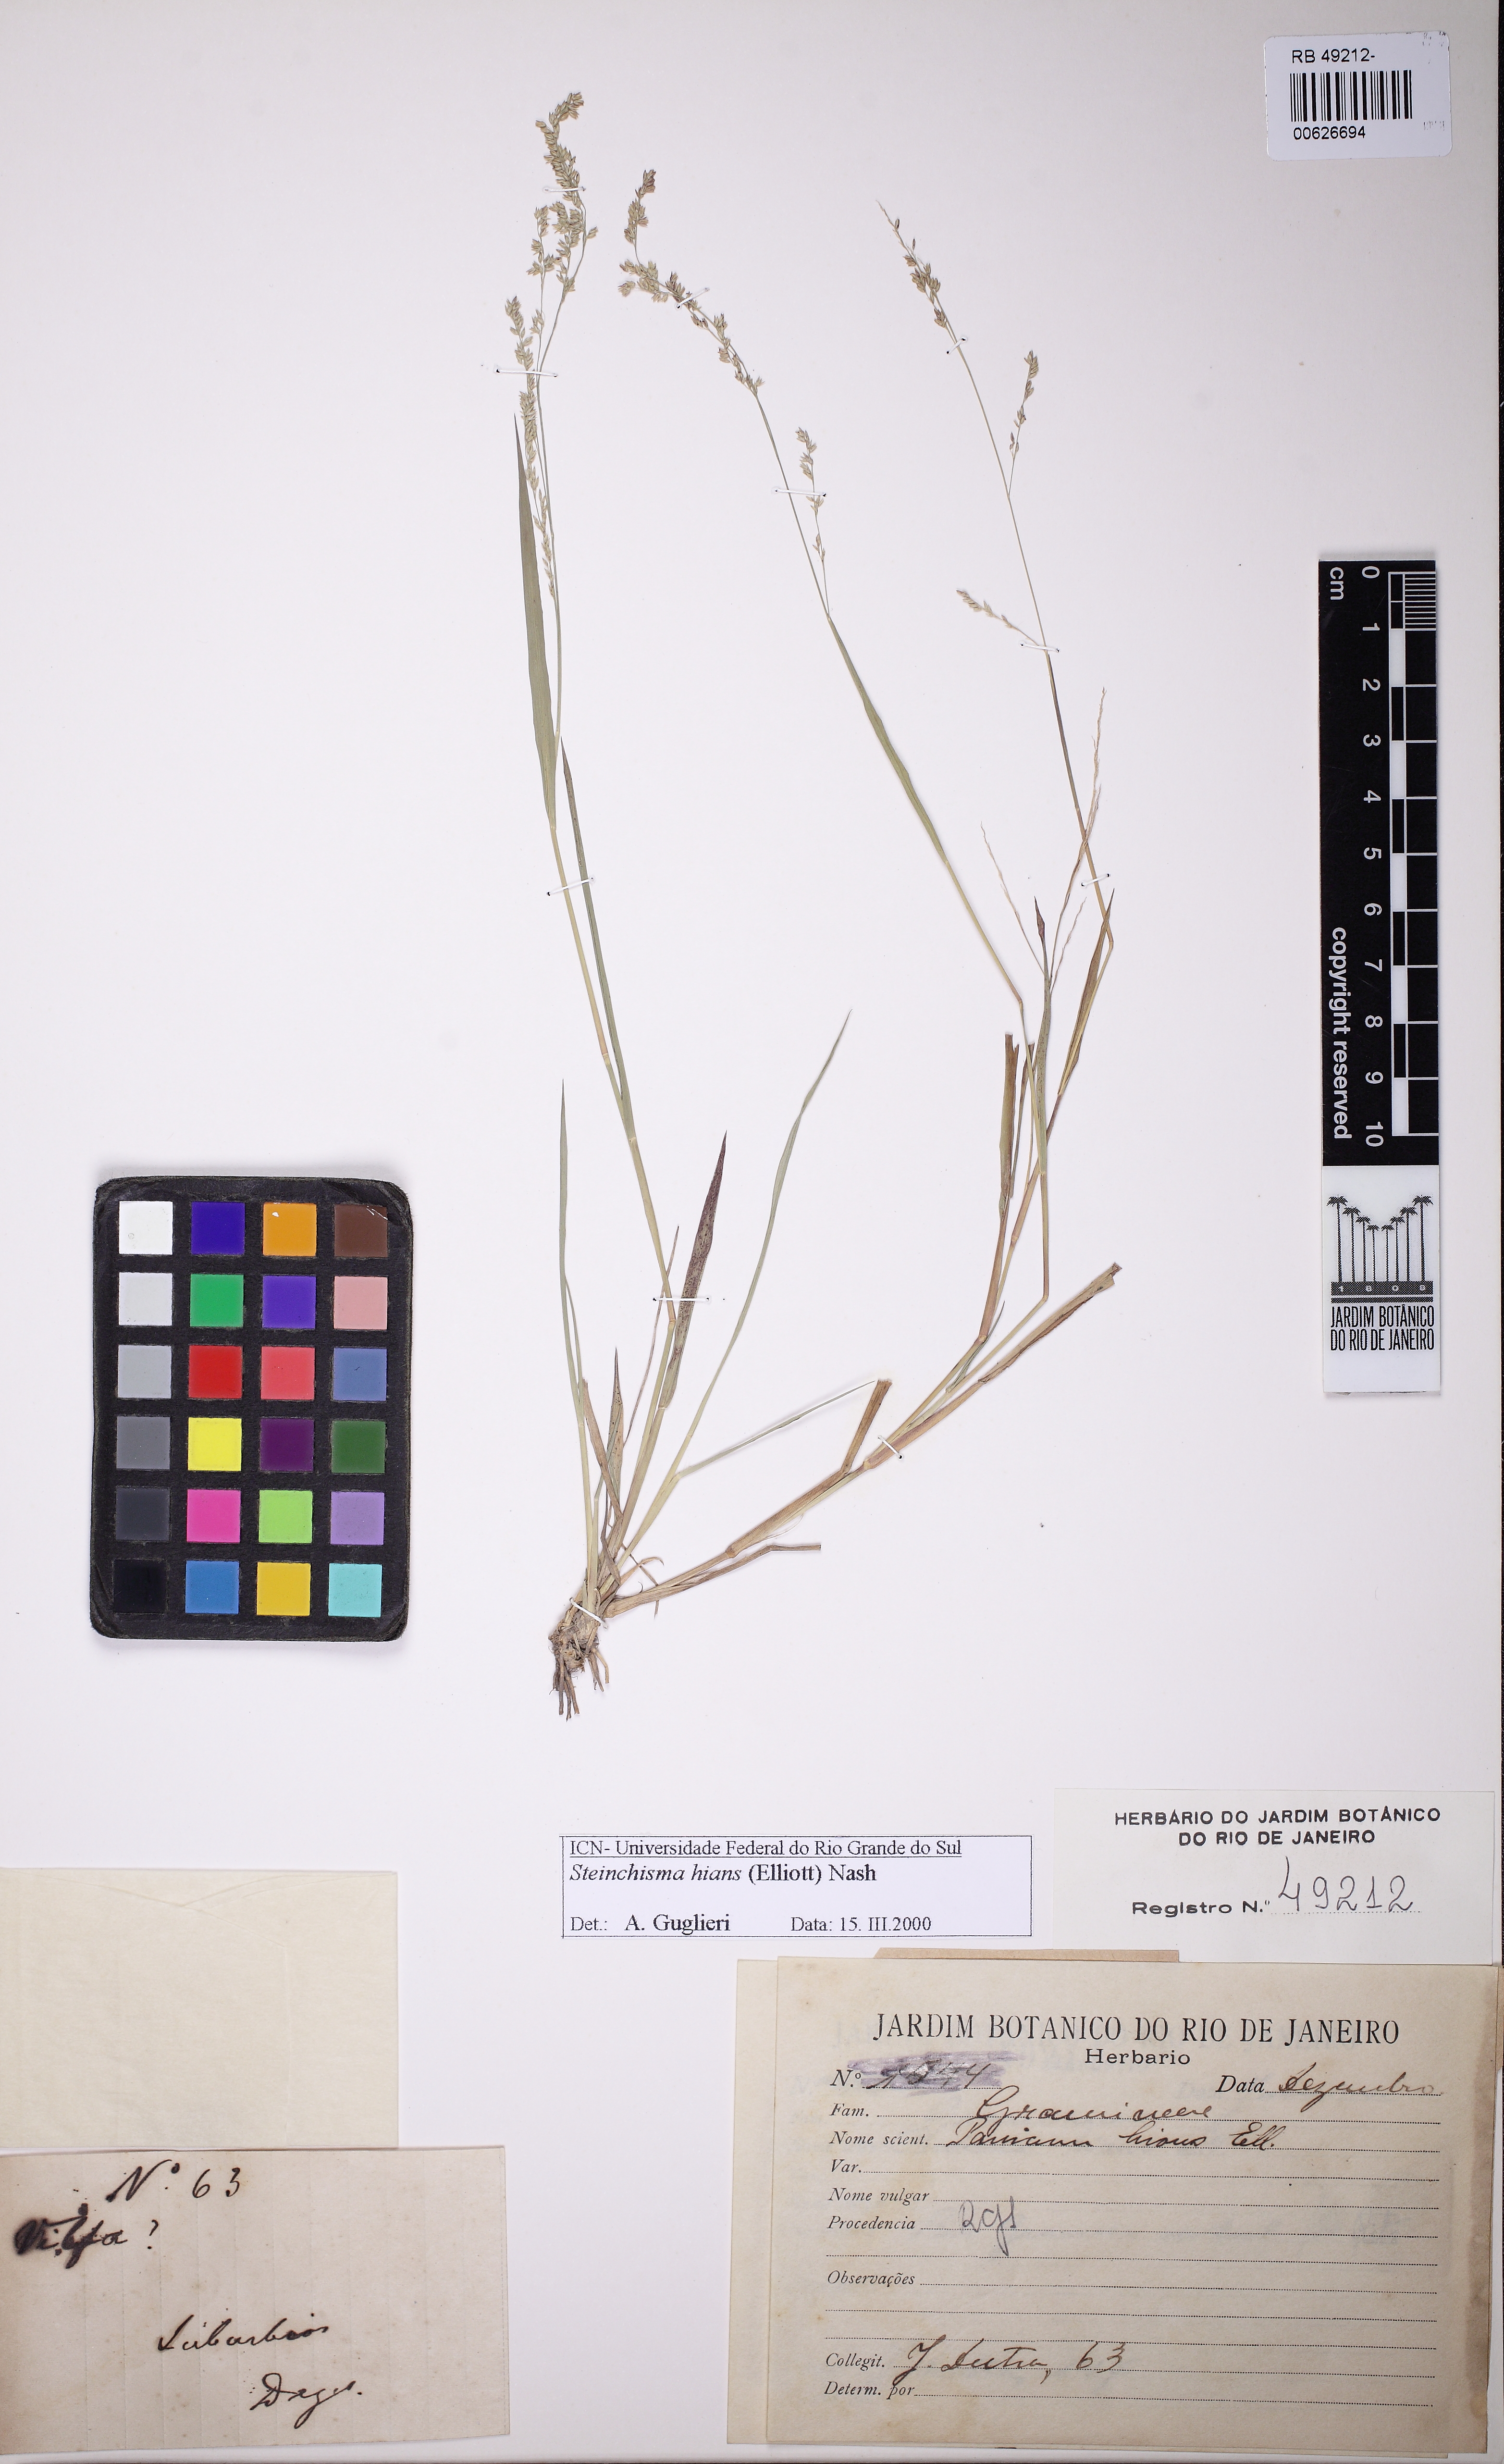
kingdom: Plantae
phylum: Tracheophyta
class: Liliopsida
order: Poales
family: Poaceae
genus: Steinchisma
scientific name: Steinchisma hians
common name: Gaping panic grass
